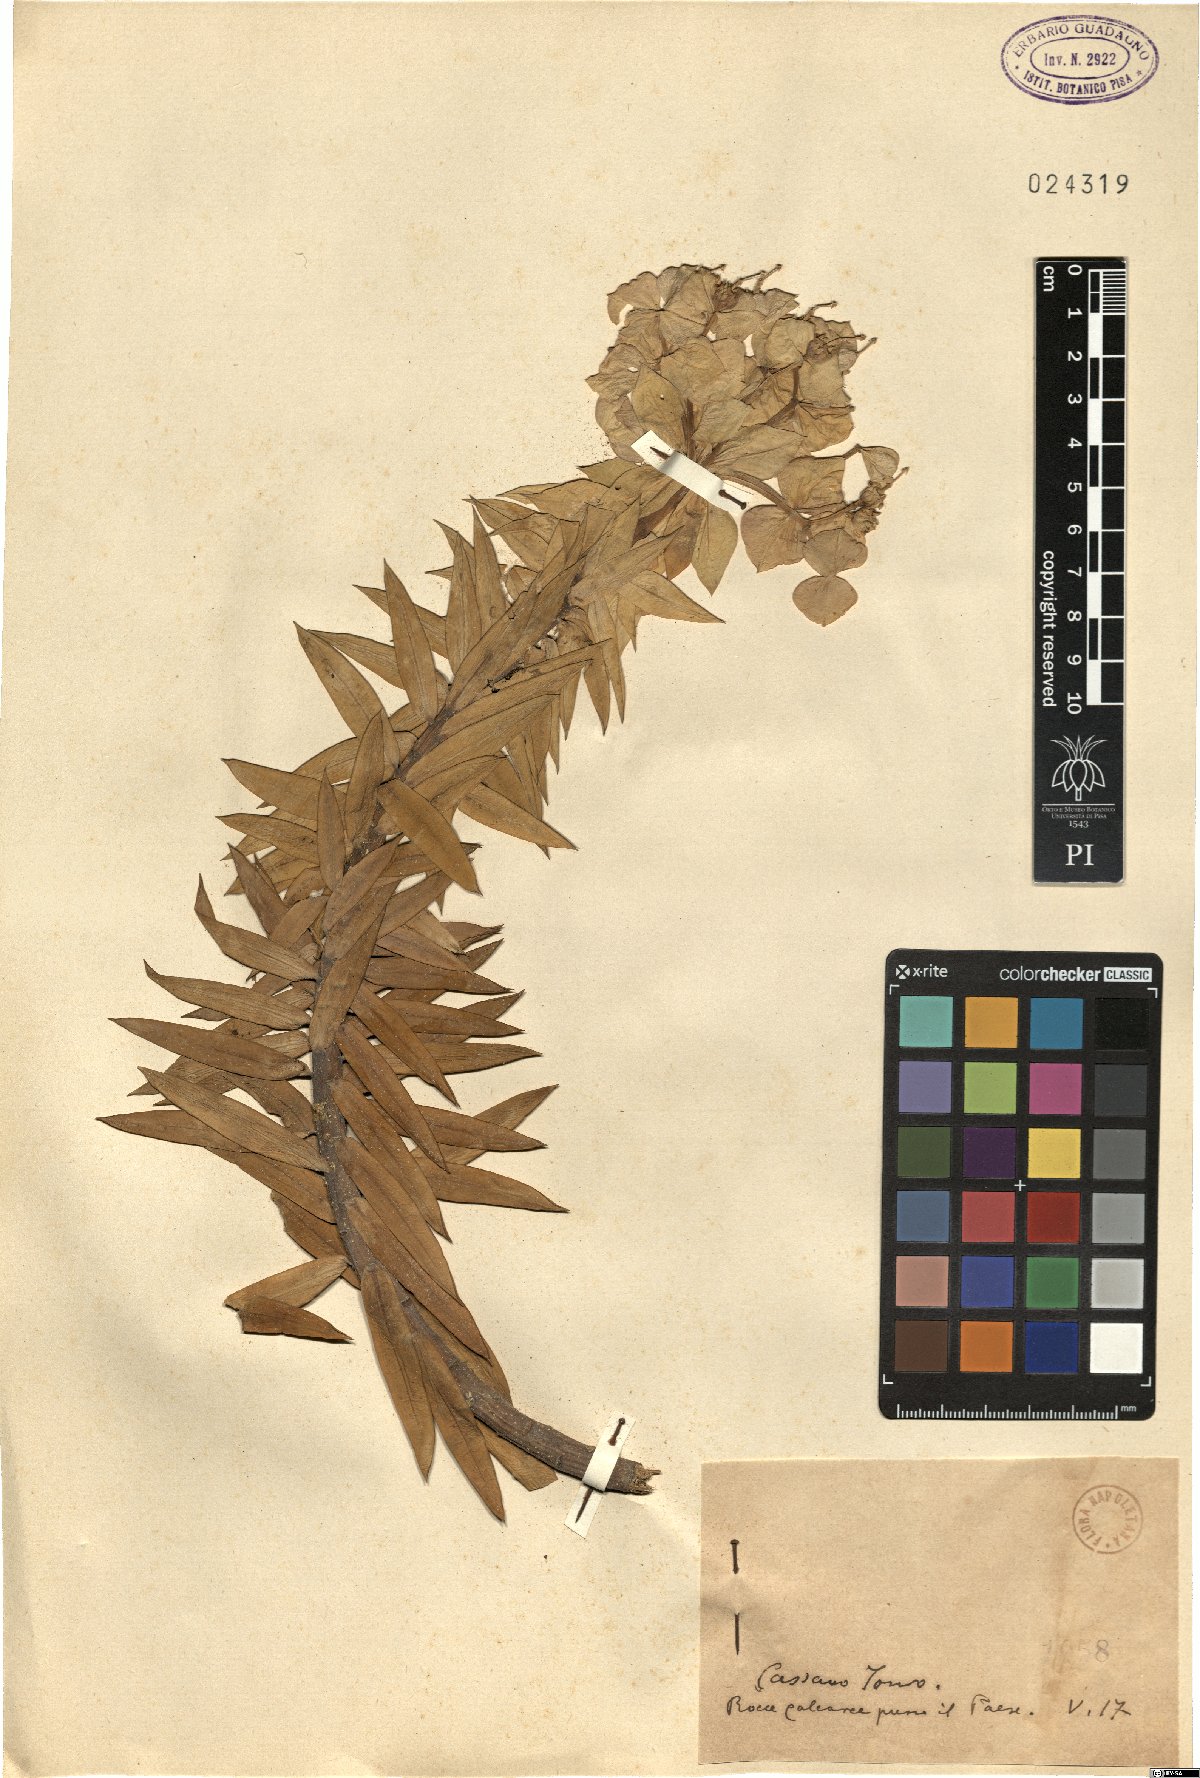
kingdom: Plantae
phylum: Tracheophyta
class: Magnoliopsida
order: Malpighiales
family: Euphorbiaceae
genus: Euphorbia
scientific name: Euphorbia
